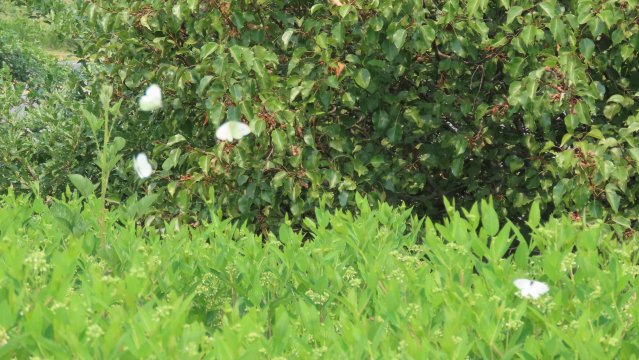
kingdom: Animalia
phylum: Arthropoda
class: Insecta
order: Lepidoptera
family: Pieridae
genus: Pieris
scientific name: Pieris rapae
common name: Cabbage White
